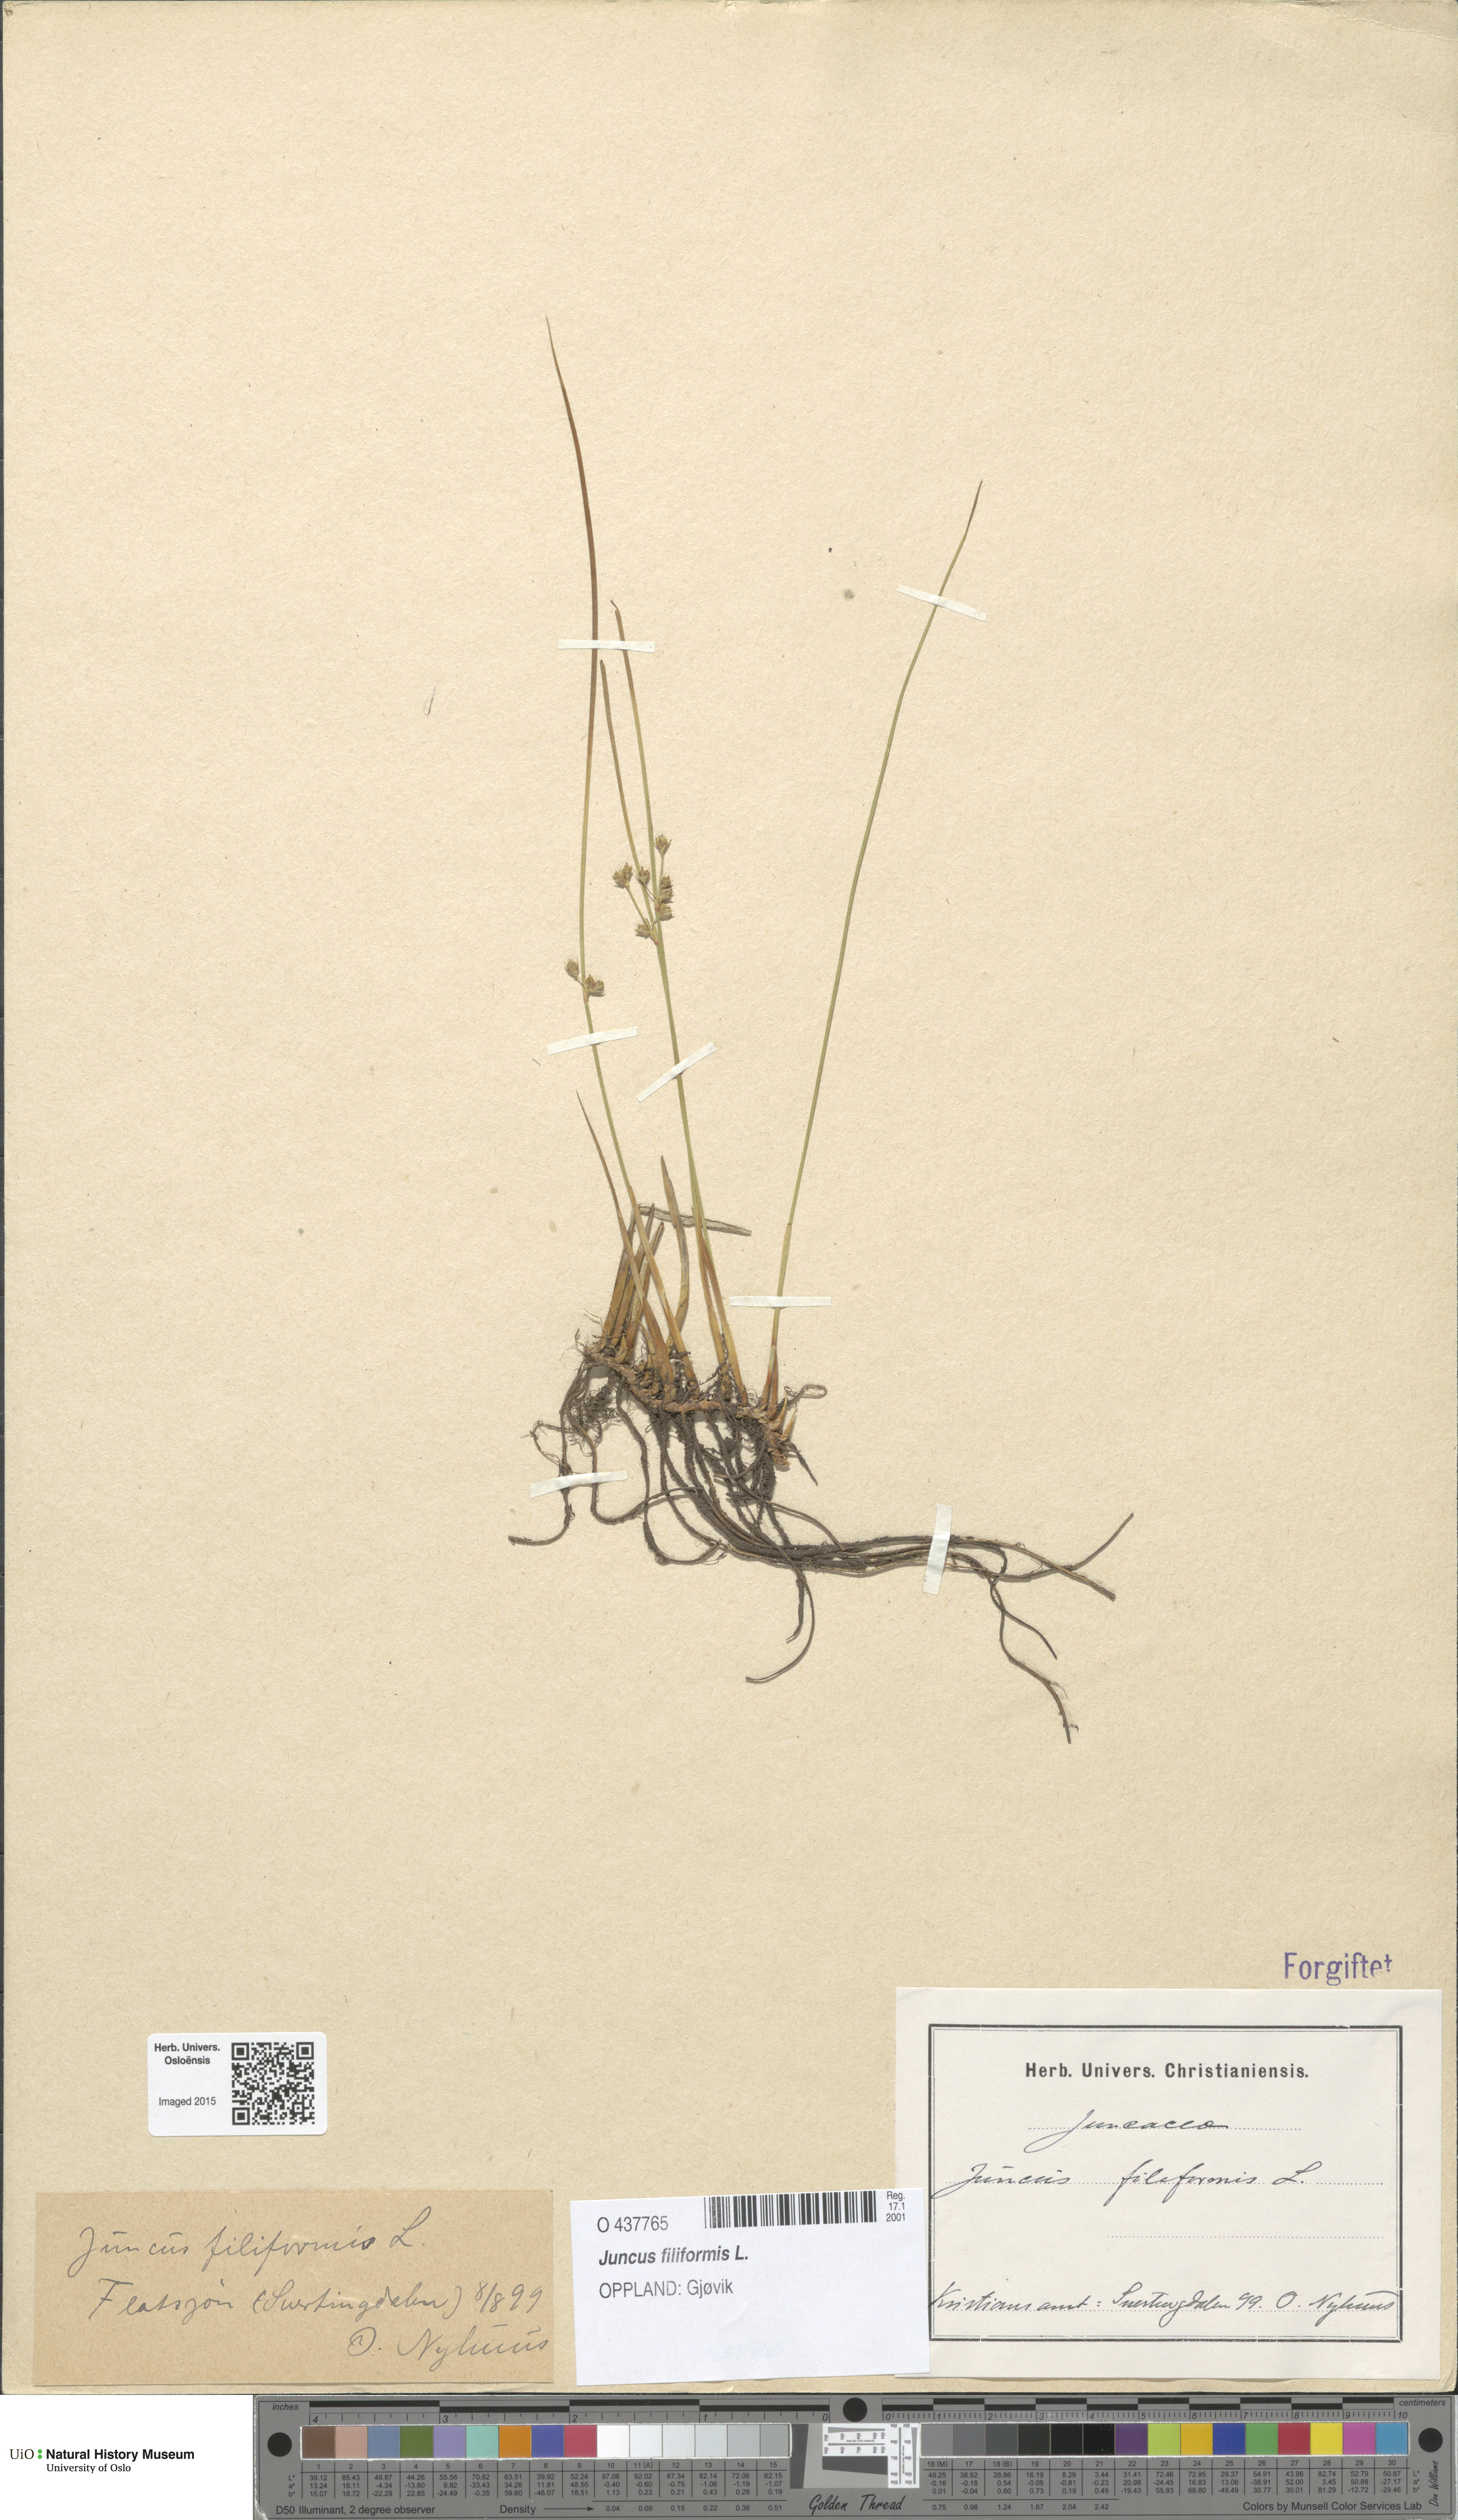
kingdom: Plantae
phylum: Tracheophyta
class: Liliopsida
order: Poales
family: Juncaceae
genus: Juncus
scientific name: Juncus filiformis
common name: Thread rush
